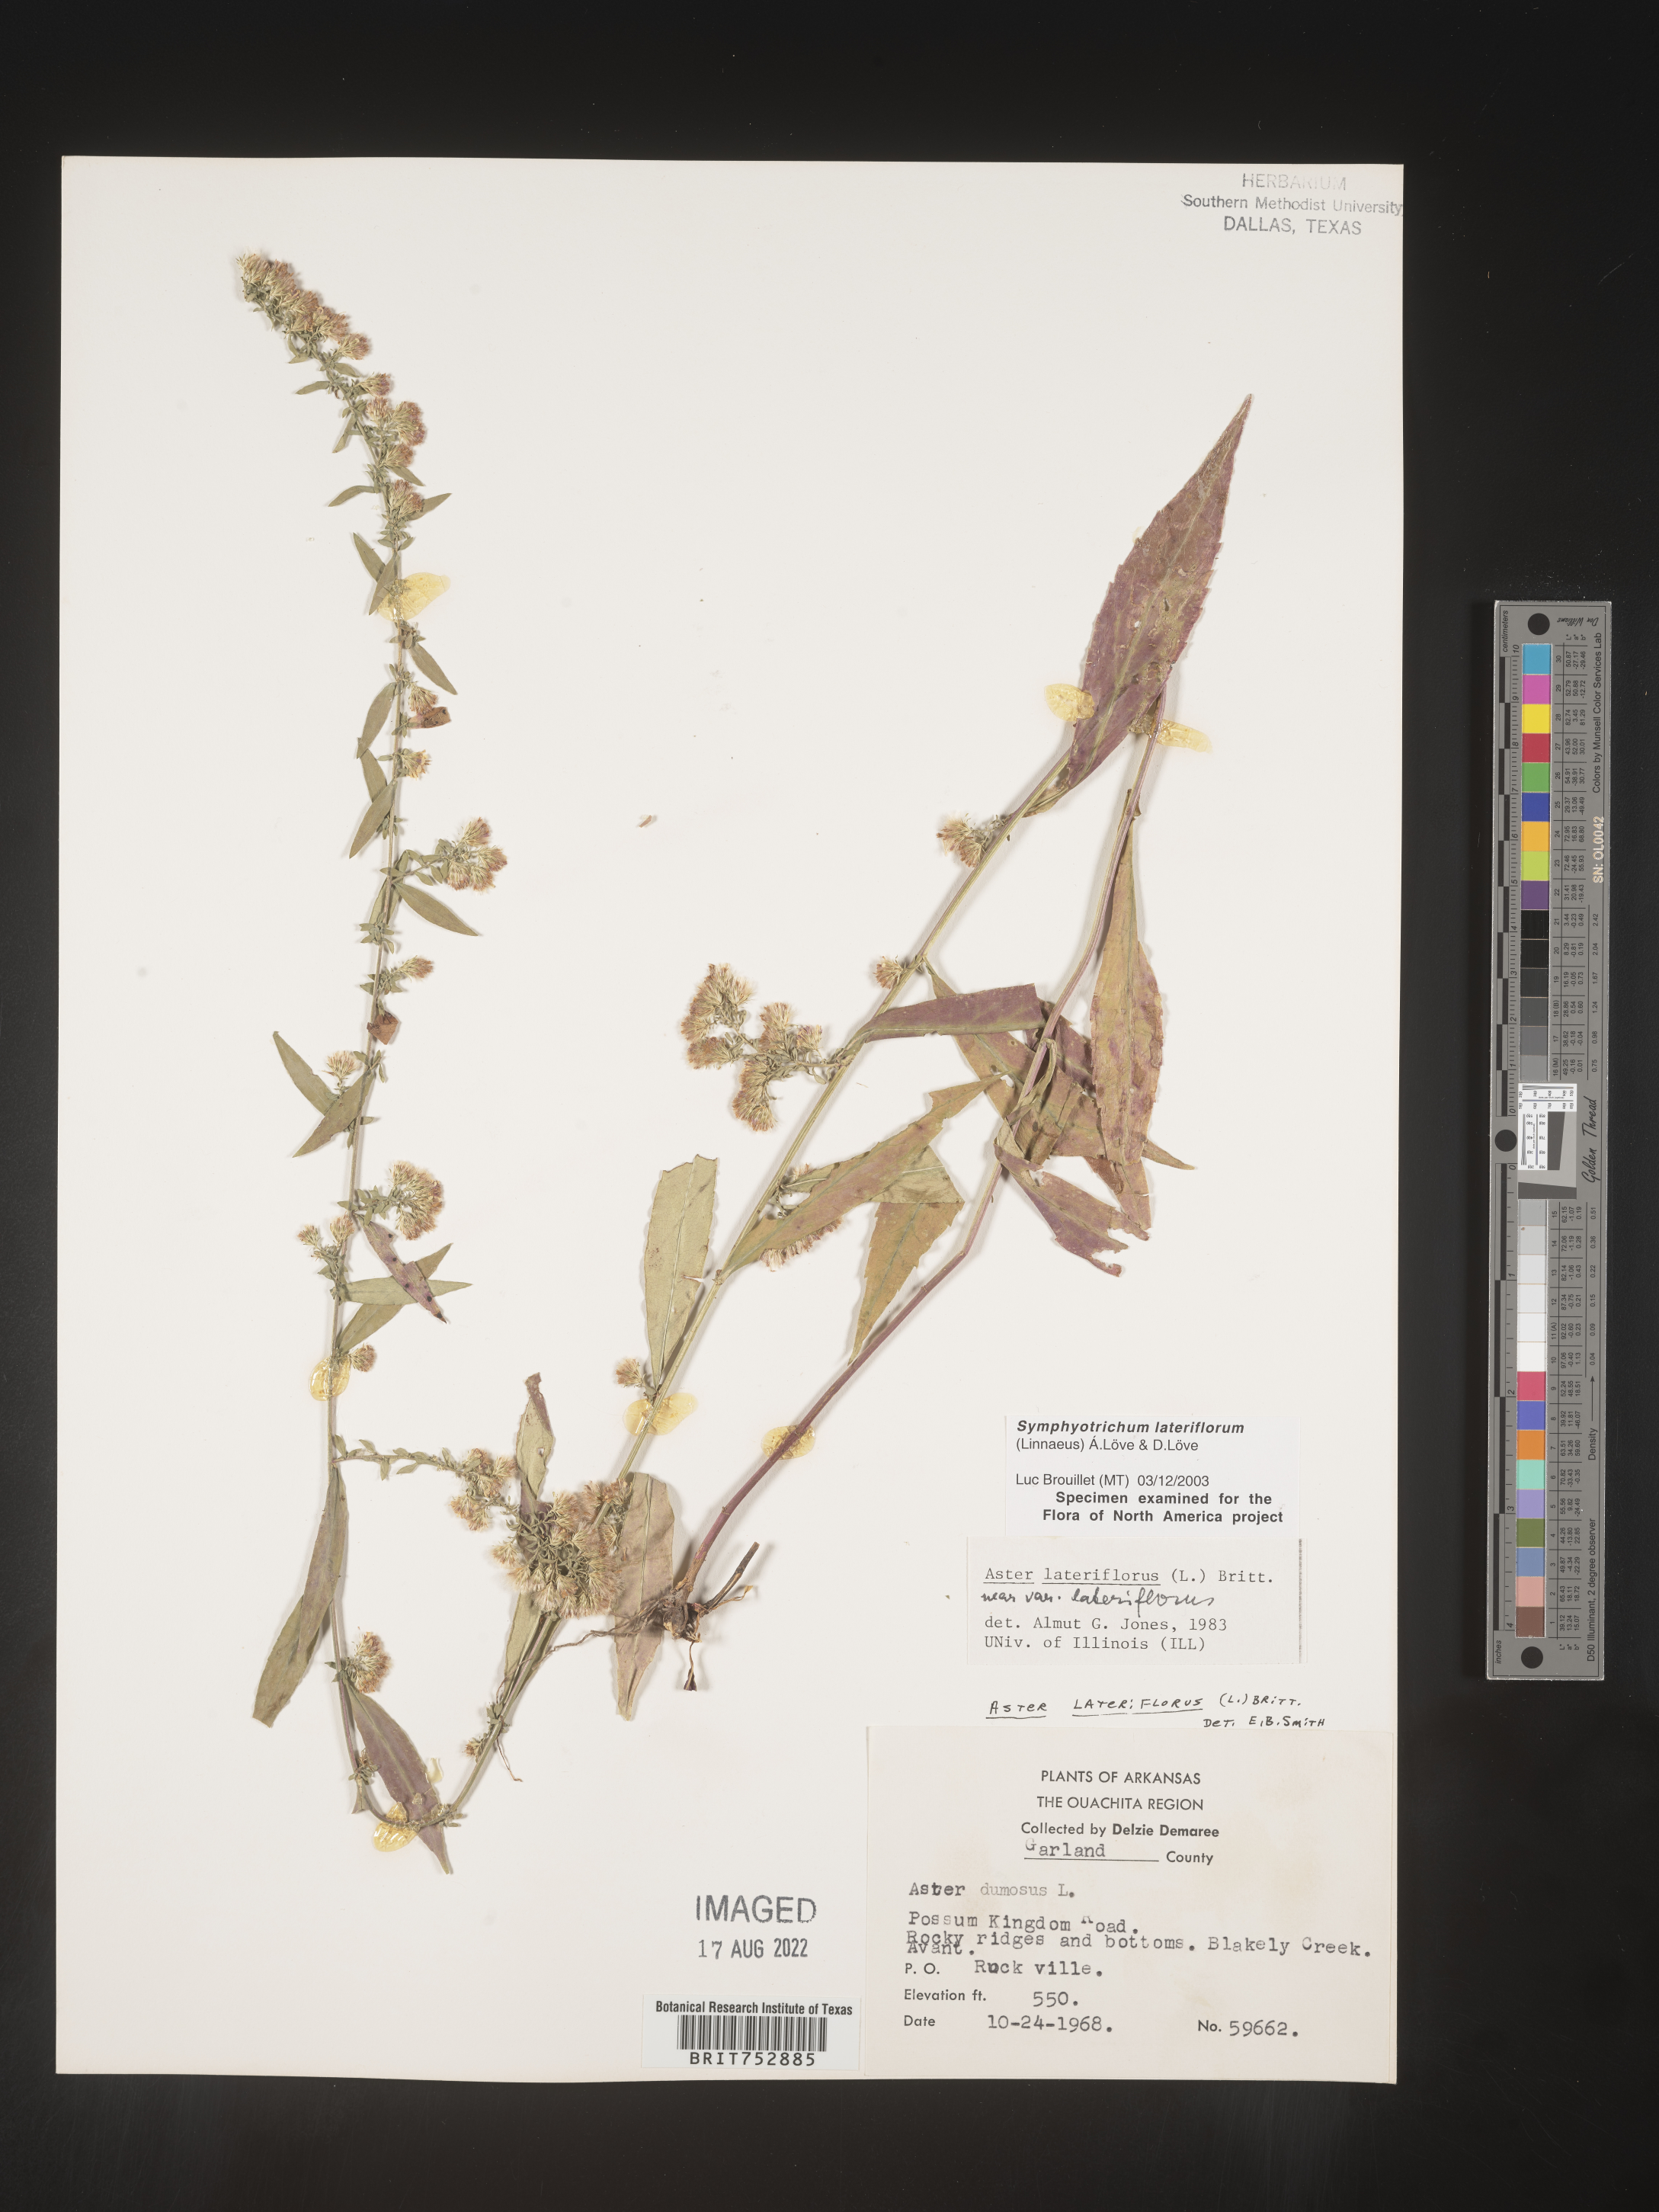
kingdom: Plantae
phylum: Tracheophyta
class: Magnoliopsida
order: Asterales
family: Asteraceae
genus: Symphyotrichum
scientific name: Symphyotrichum lateriflorum
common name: Calico aster
